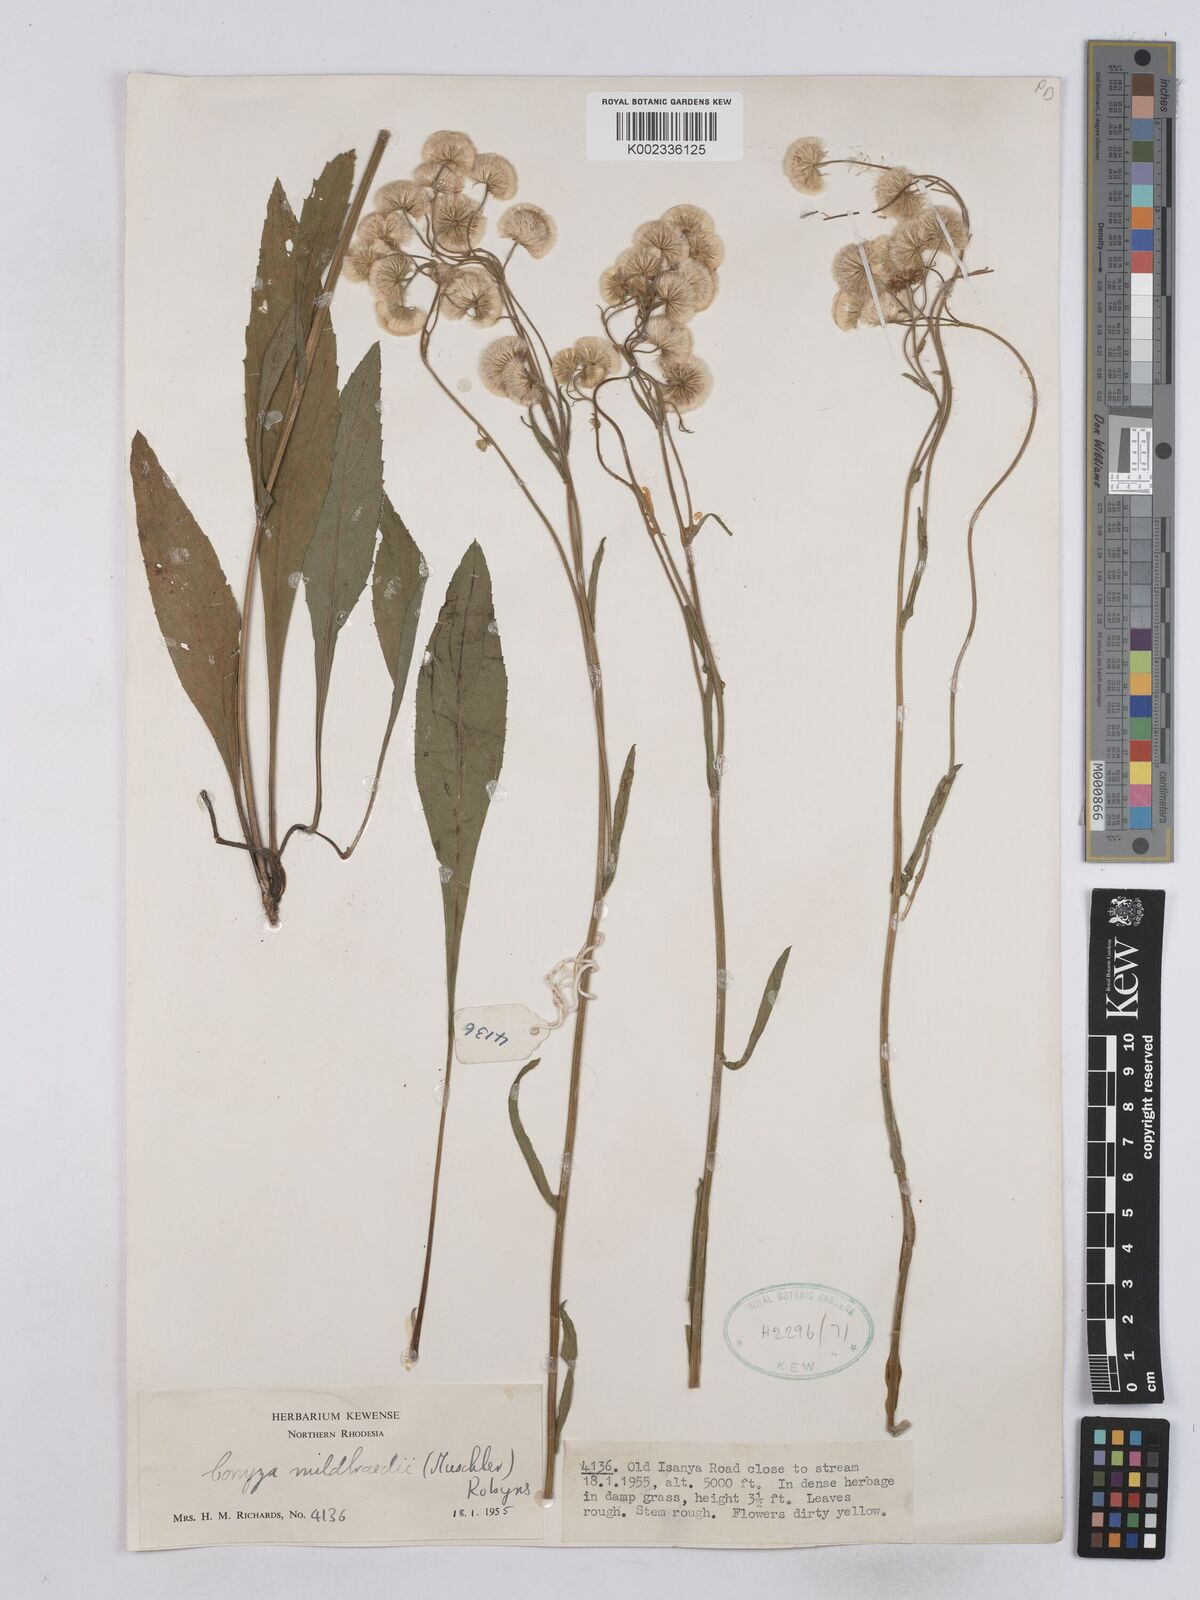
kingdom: Plantae
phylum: Tracheophyta
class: Magnoliopsida
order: Asterales
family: Asteraceae
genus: Conyza
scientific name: Conyza limosa
